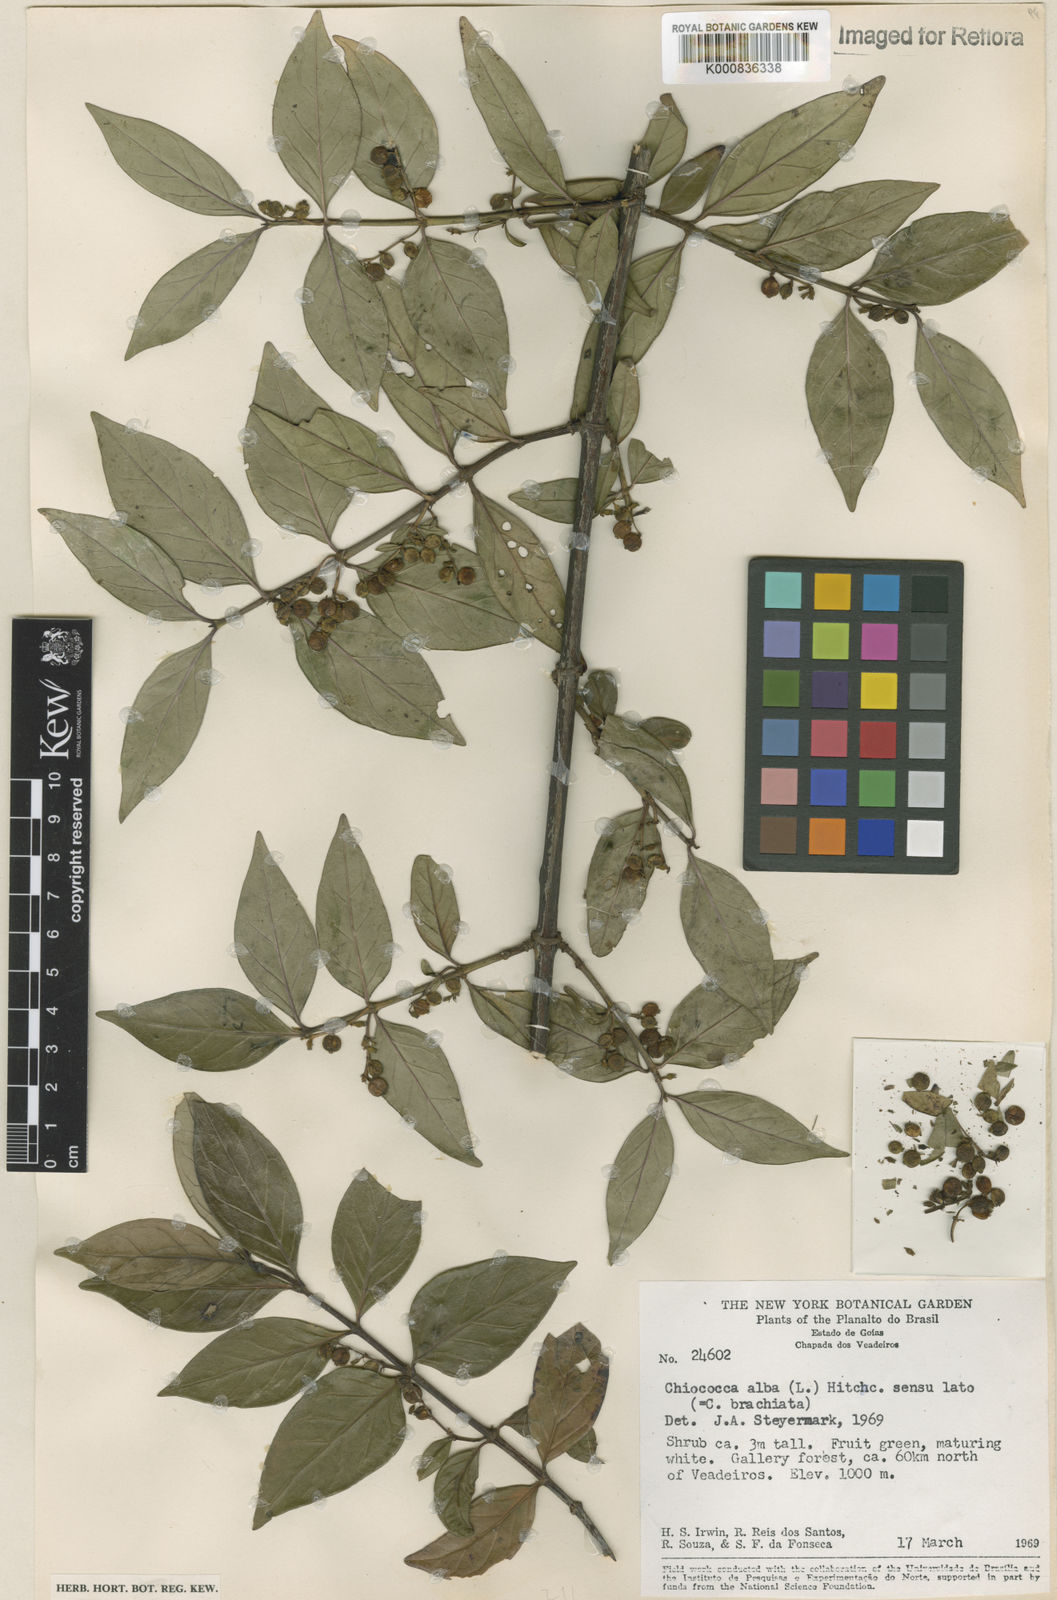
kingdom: Plantae
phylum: Tracheophyta
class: Magnoliopsida
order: Gentianales
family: Rubiaceae
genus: Chiococca
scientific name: Chiococca alba
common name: Snowberry
